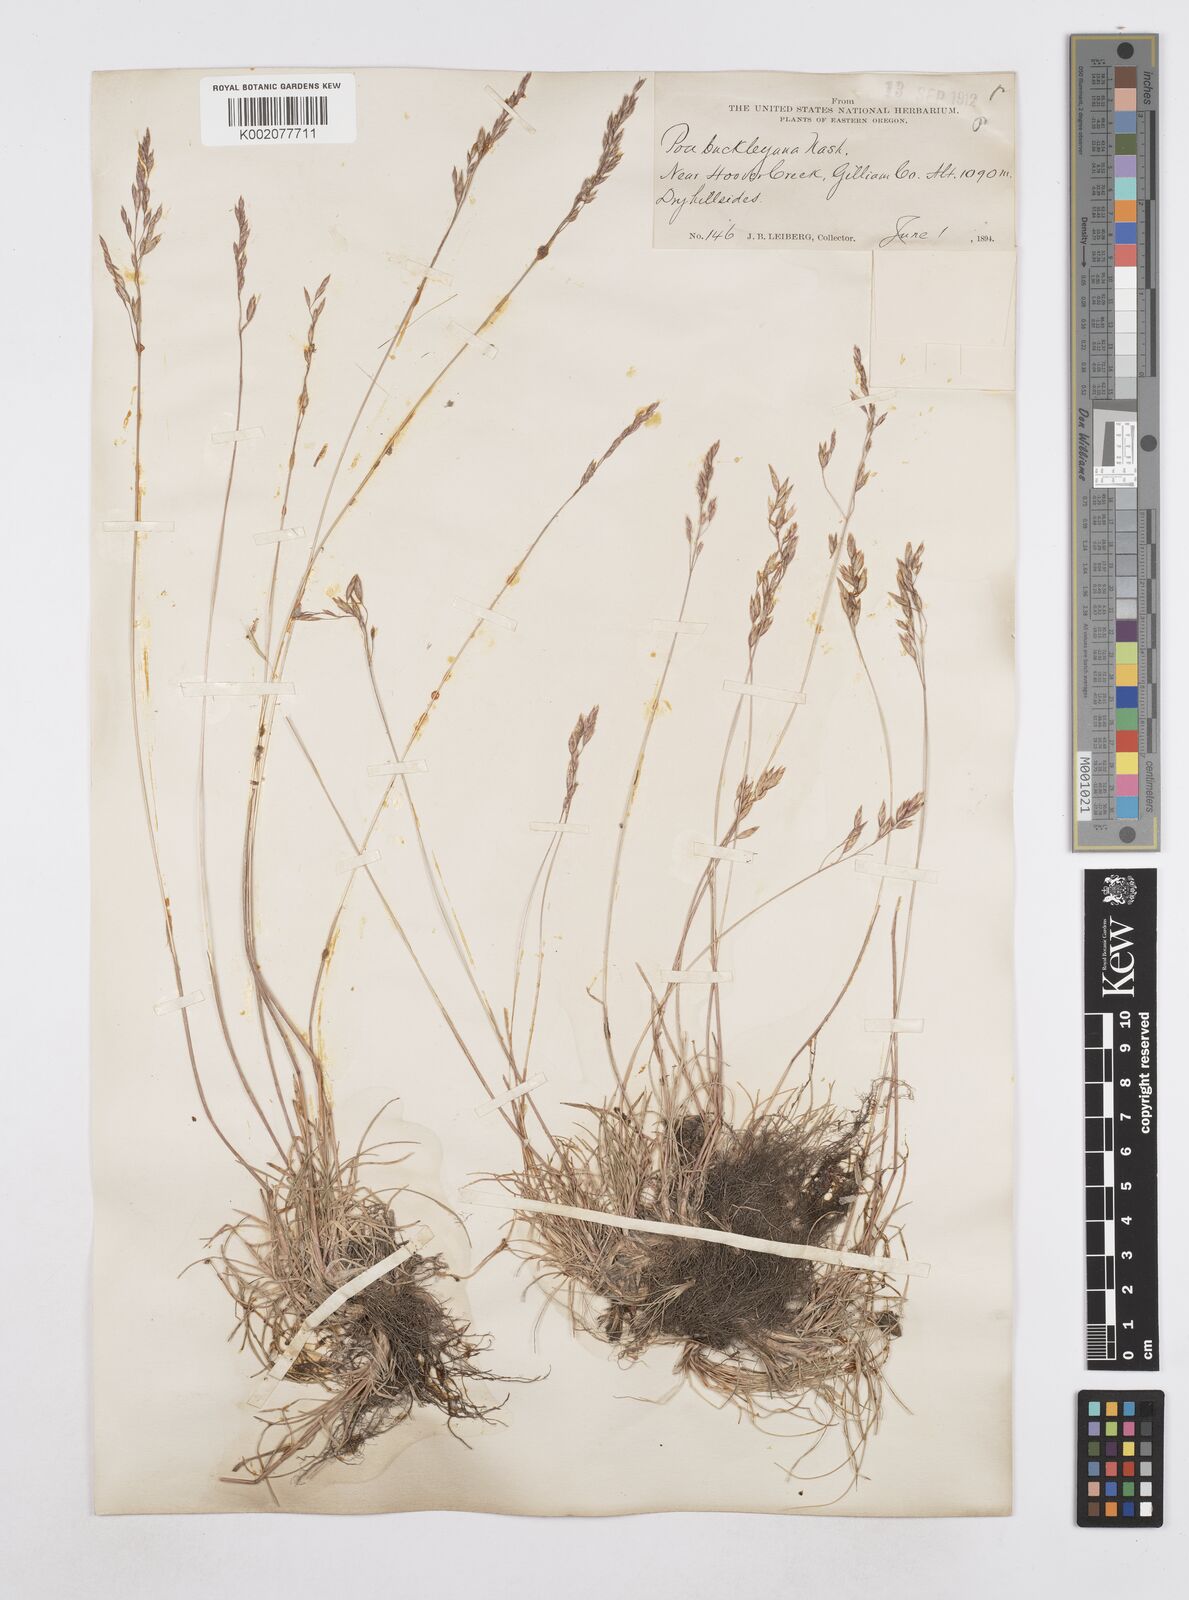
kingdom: Plantae
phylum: Tracheophyta
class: Liliopsida
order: Poales
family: Poaceae
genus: Poa
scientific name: Poa secunda
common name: Sandberg bluegrass
